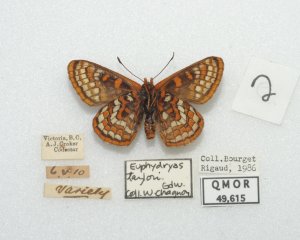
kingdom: Animalia
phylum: Arthropoda
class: Insecta
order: Lepidoptera
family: Nymphalidae
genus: Occidryas
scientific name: Occidryas editha
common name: Edith's Checkerspot
